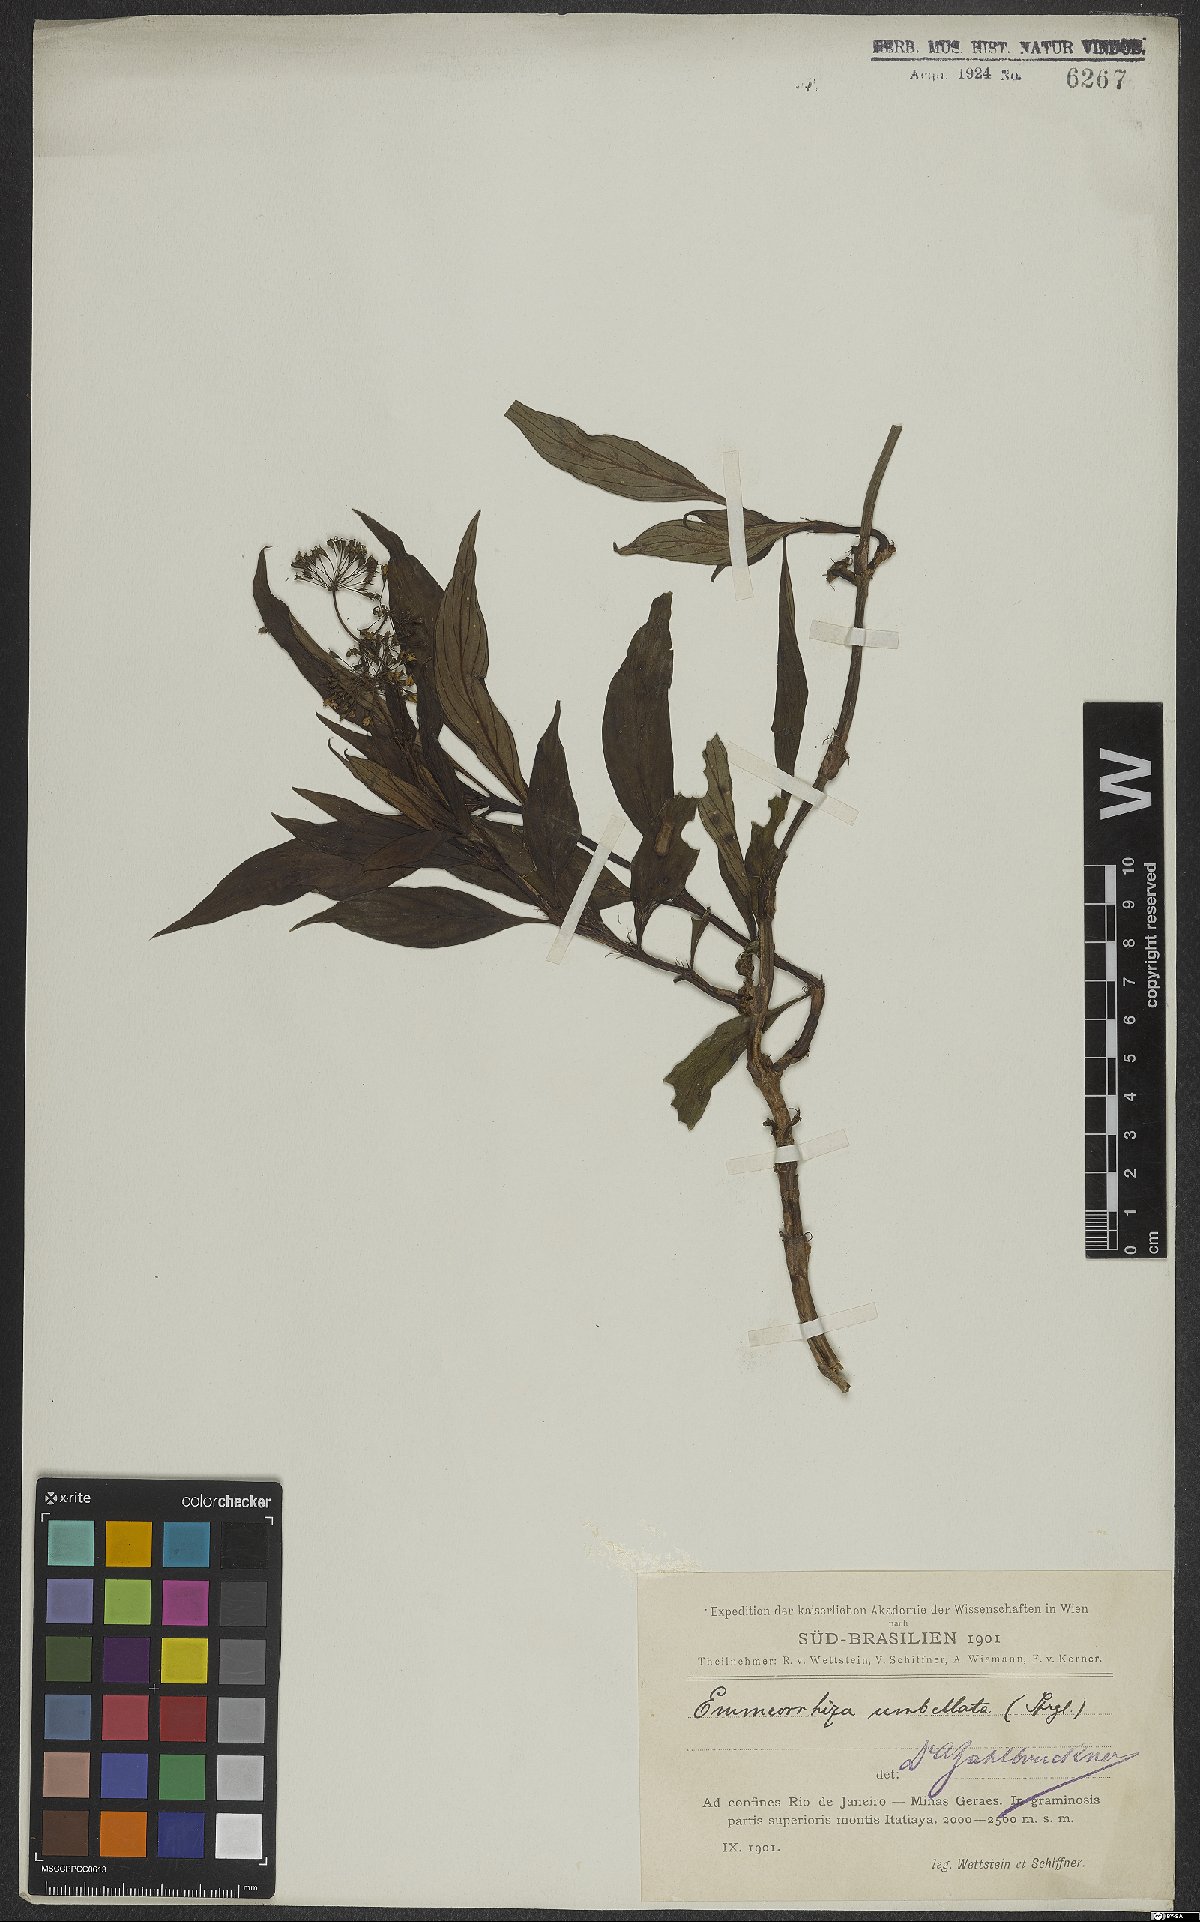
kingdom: Plantae
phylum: Tracheophyta
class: Magnoliopsida
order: Gentianales
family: Rubiaceae
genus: Emmeorhiza
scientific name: Emmeorhiza umbellata
